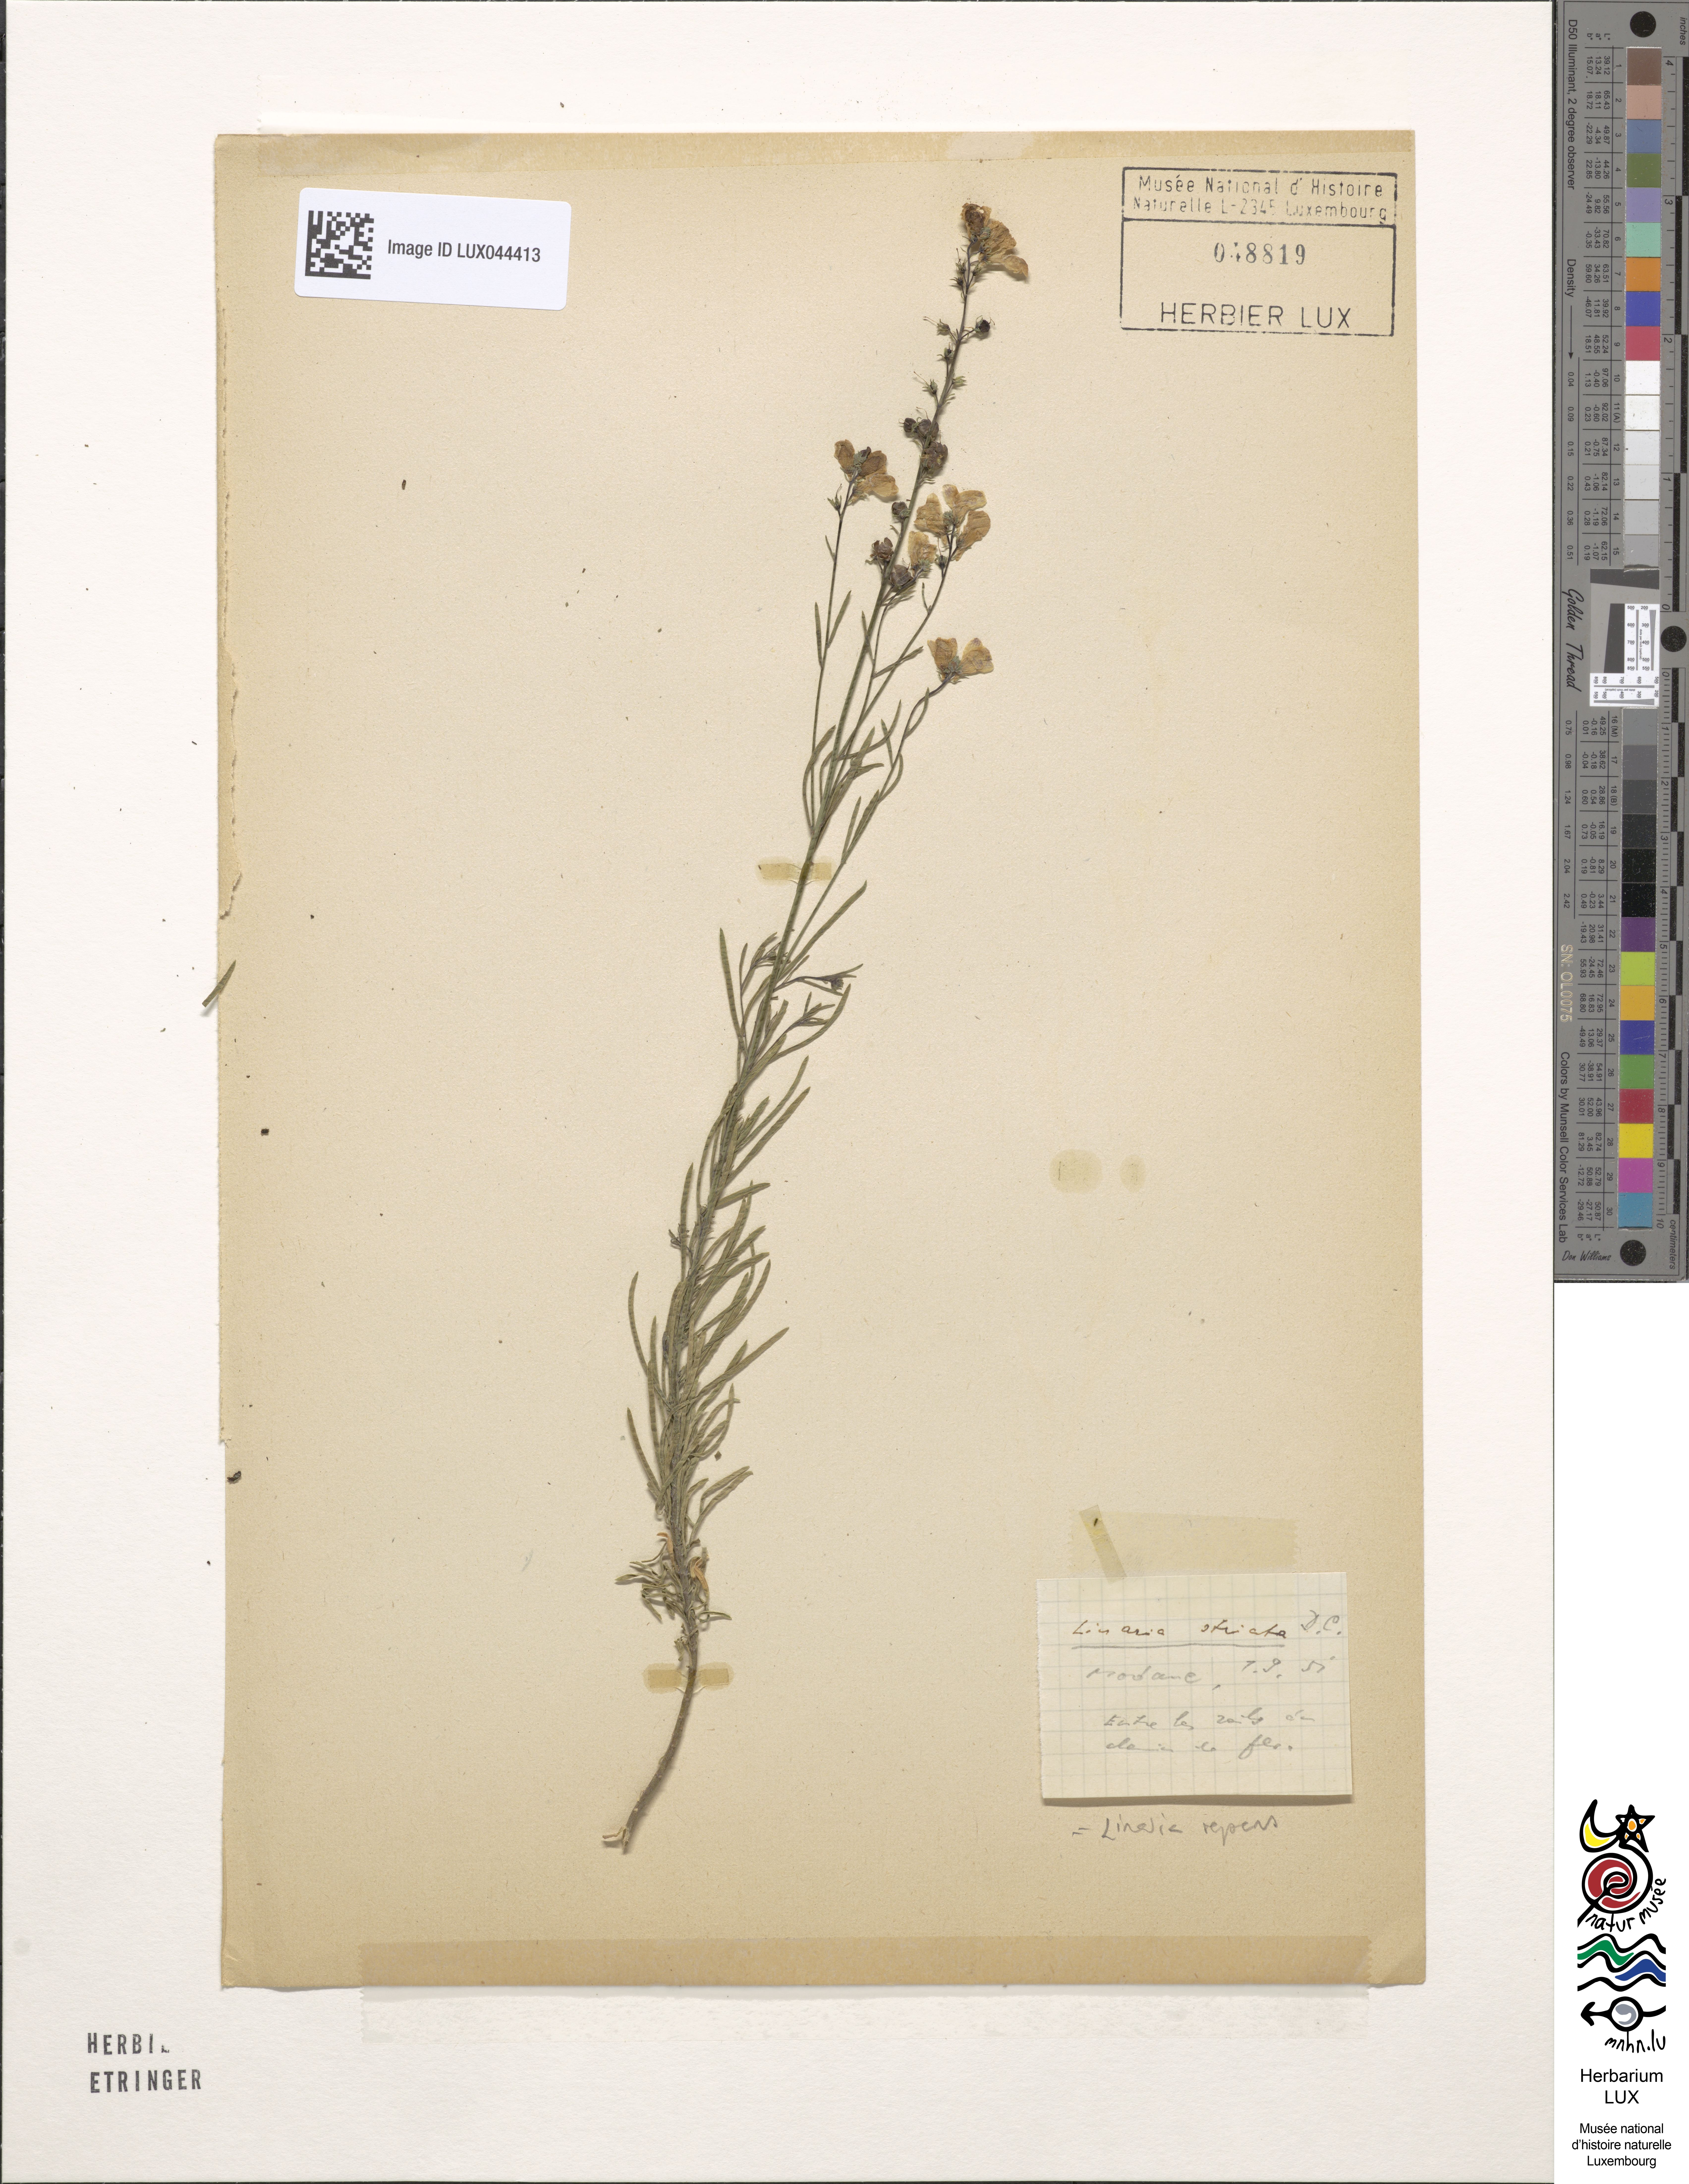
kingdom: Plantae
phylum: Tracheophyta
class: Magnoliopsida
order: Lamiales
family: Plantaginaceae
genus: Linaria
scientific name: Linaria repens
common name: Pale toadflax
